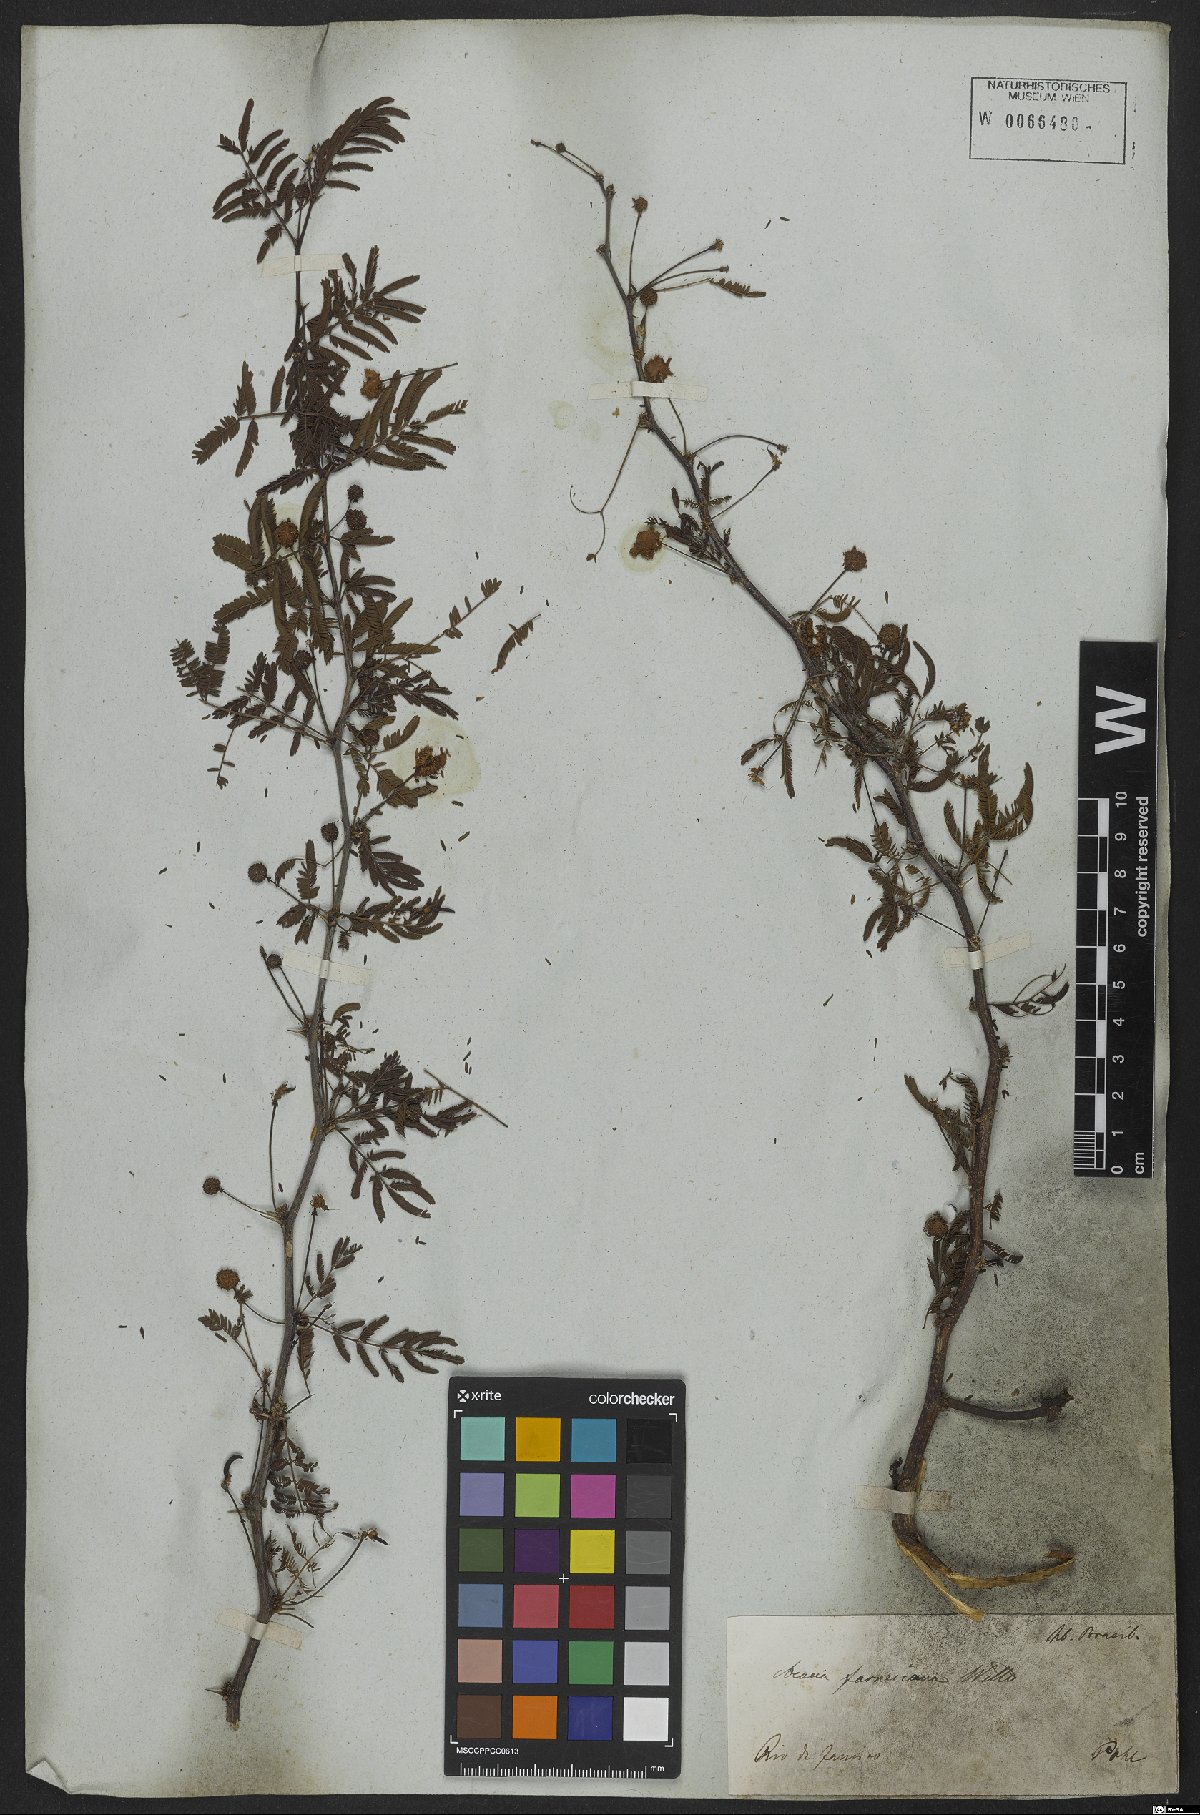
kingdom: Plantae
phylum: Tracheophyta
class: Magnoliopsida
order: Fabales
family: Fabaceae
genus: Vachellia
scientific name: Vachellia farnesiana
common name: Sweet acacia
